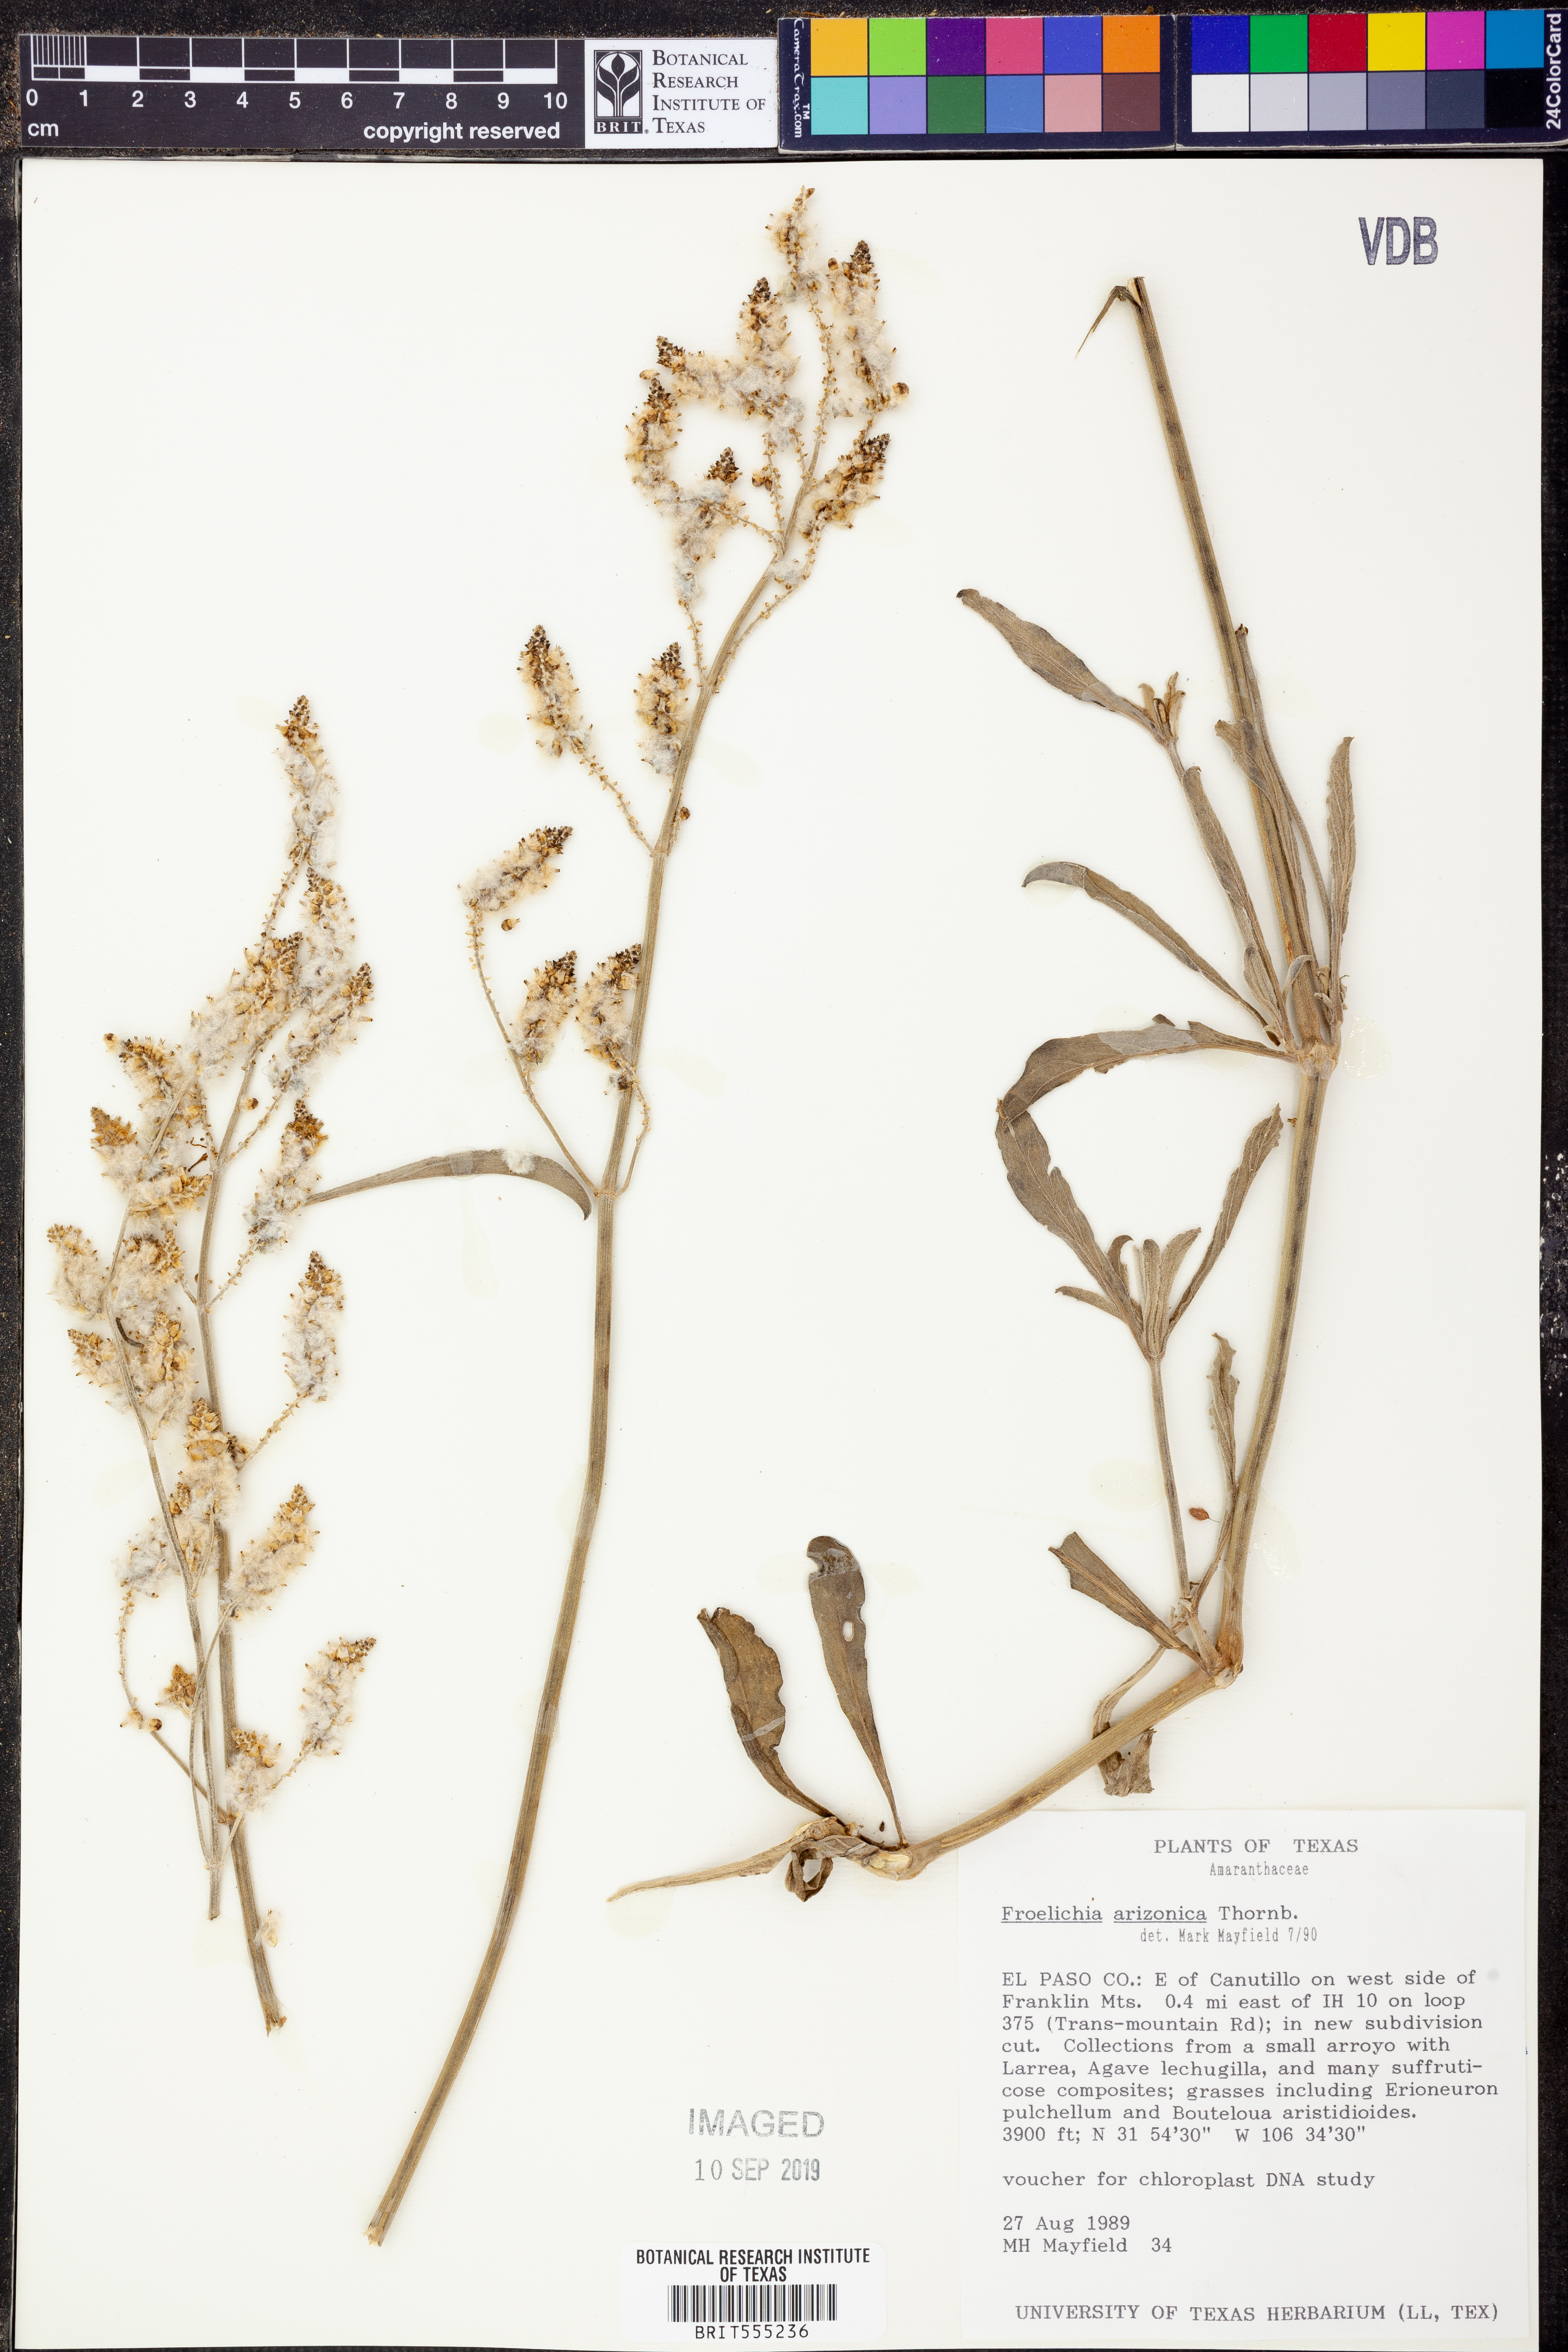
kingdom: Plantae
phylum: Tracheophyta
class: Magnoliopsida
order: Caryophyllales
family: Amaranthaceae
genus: Froelichia
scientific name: Froelichia arizonica
